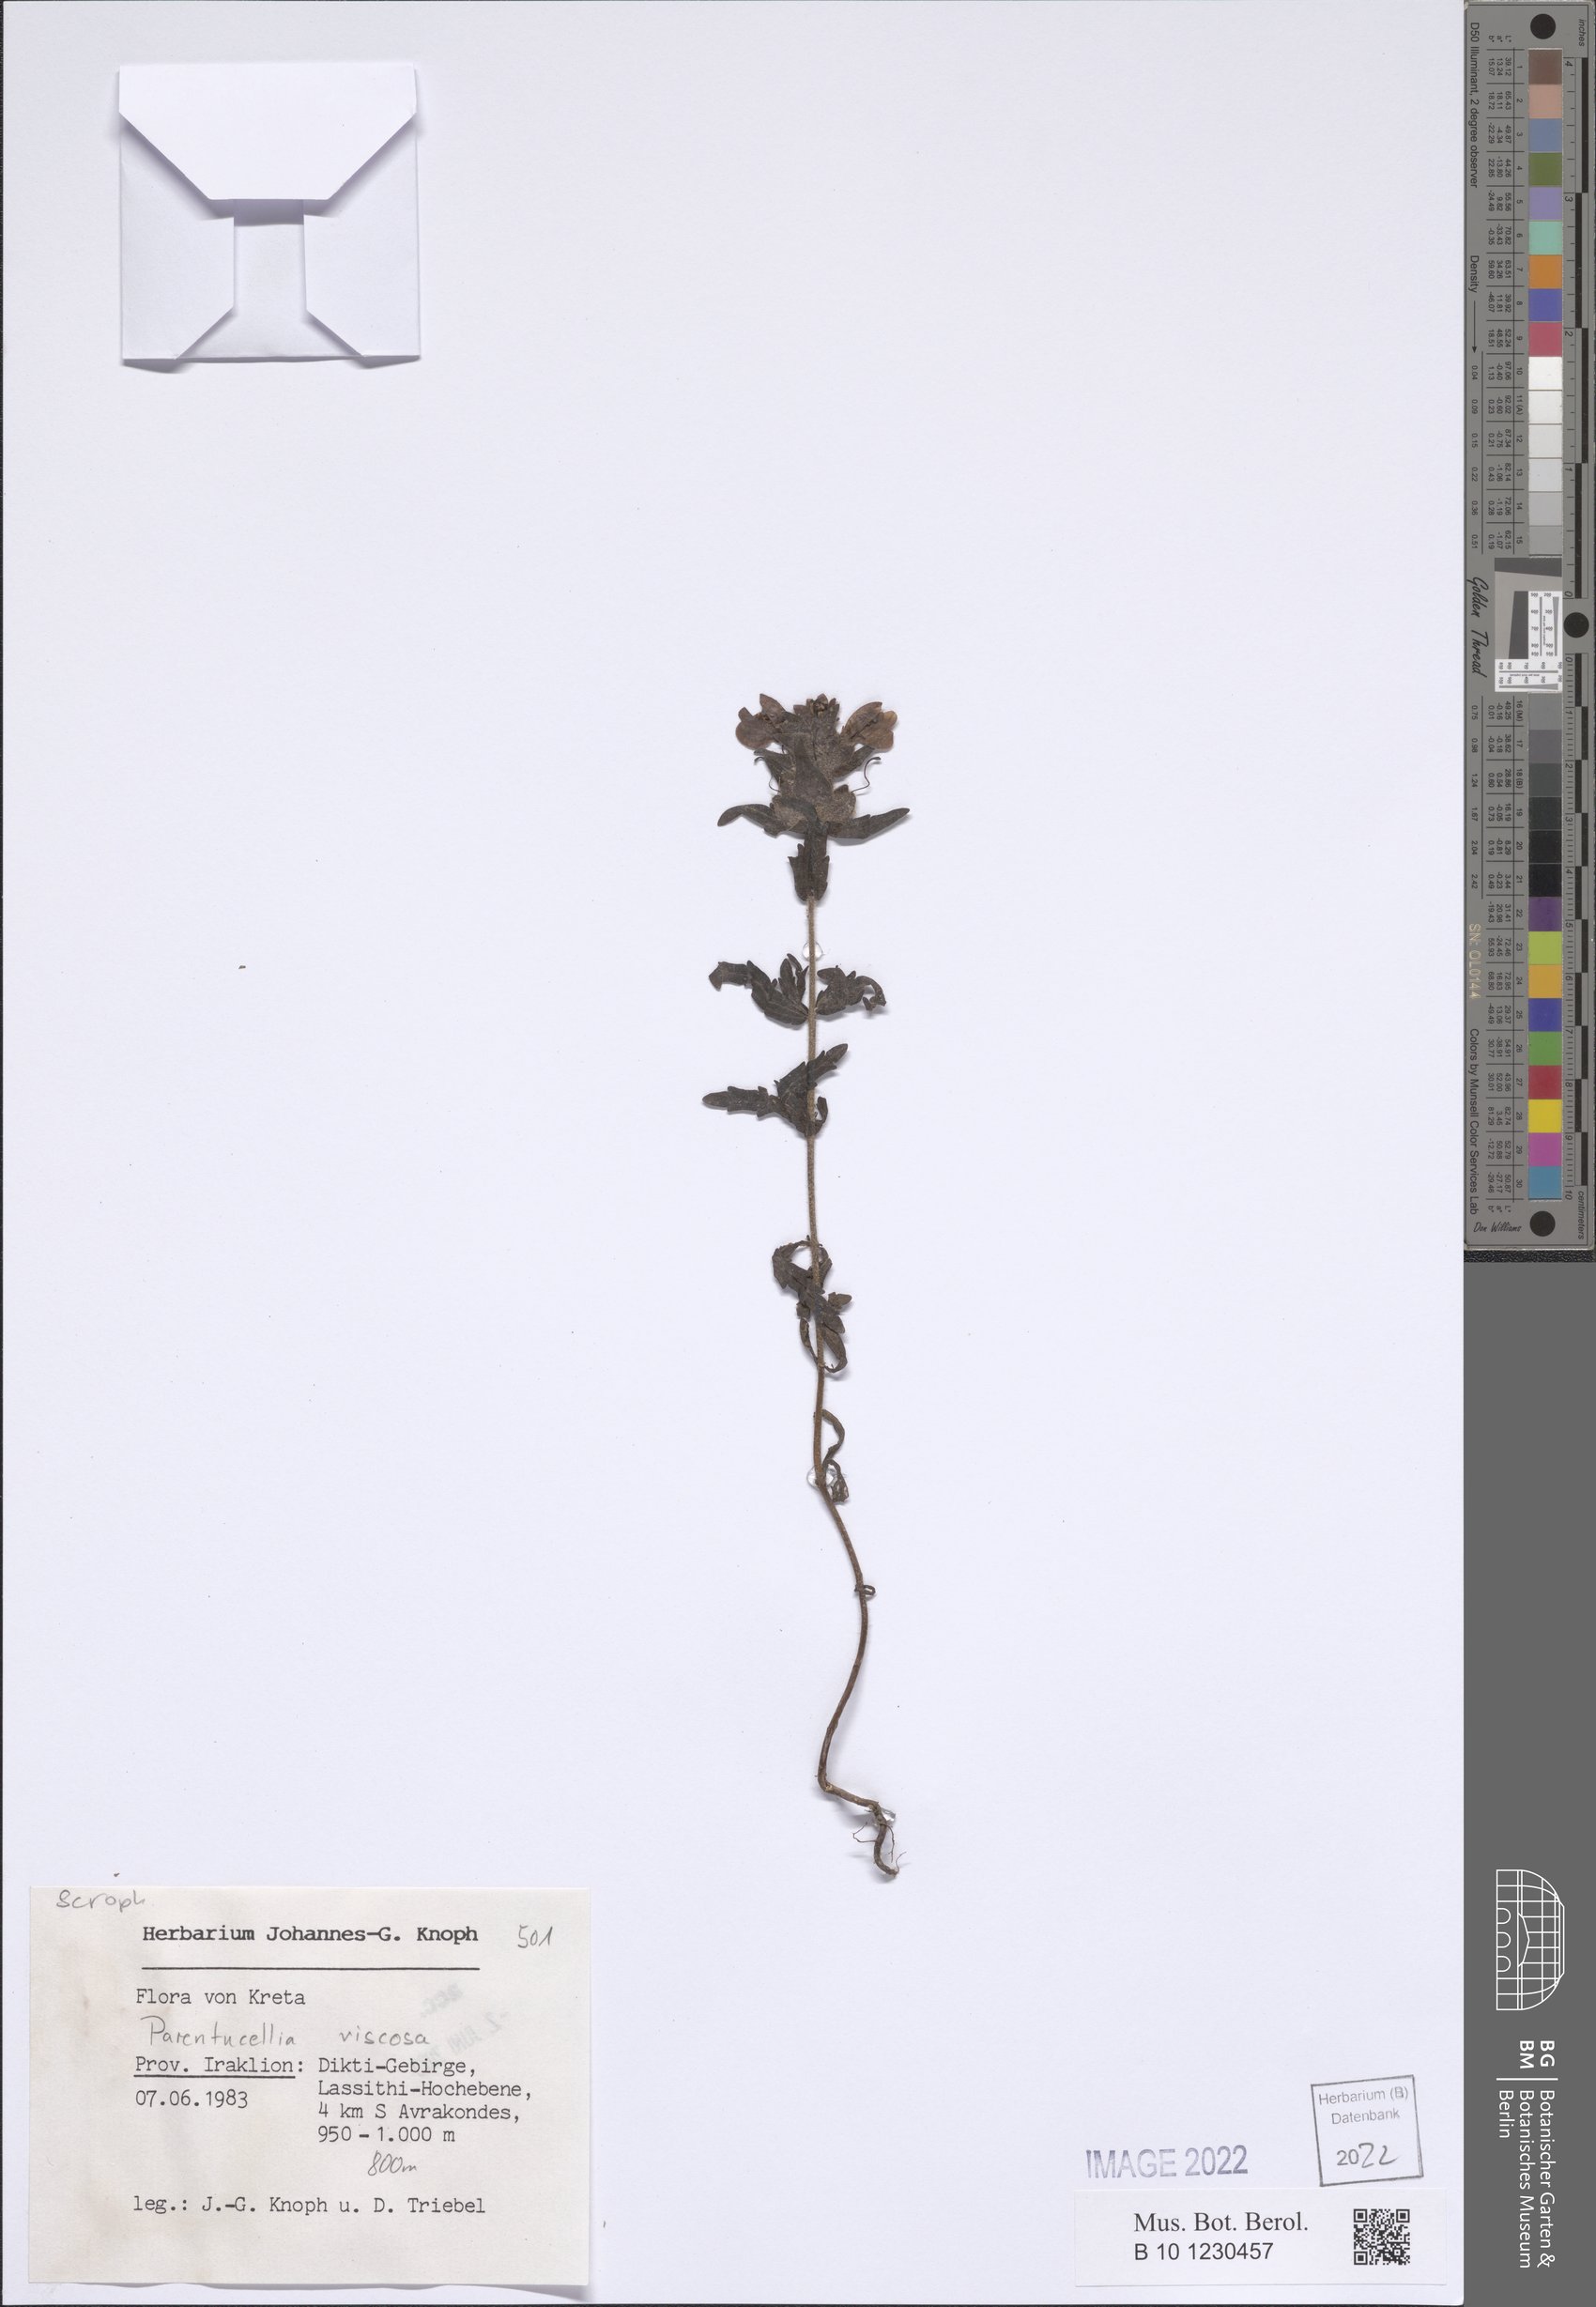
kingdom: Plantae
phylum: Tracheophyta
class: Magnoliopsida
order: Lamiales
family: Orobanchaceae
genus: Bellardia
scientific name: Bellardia viscosa
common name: Sticky parentucellia
